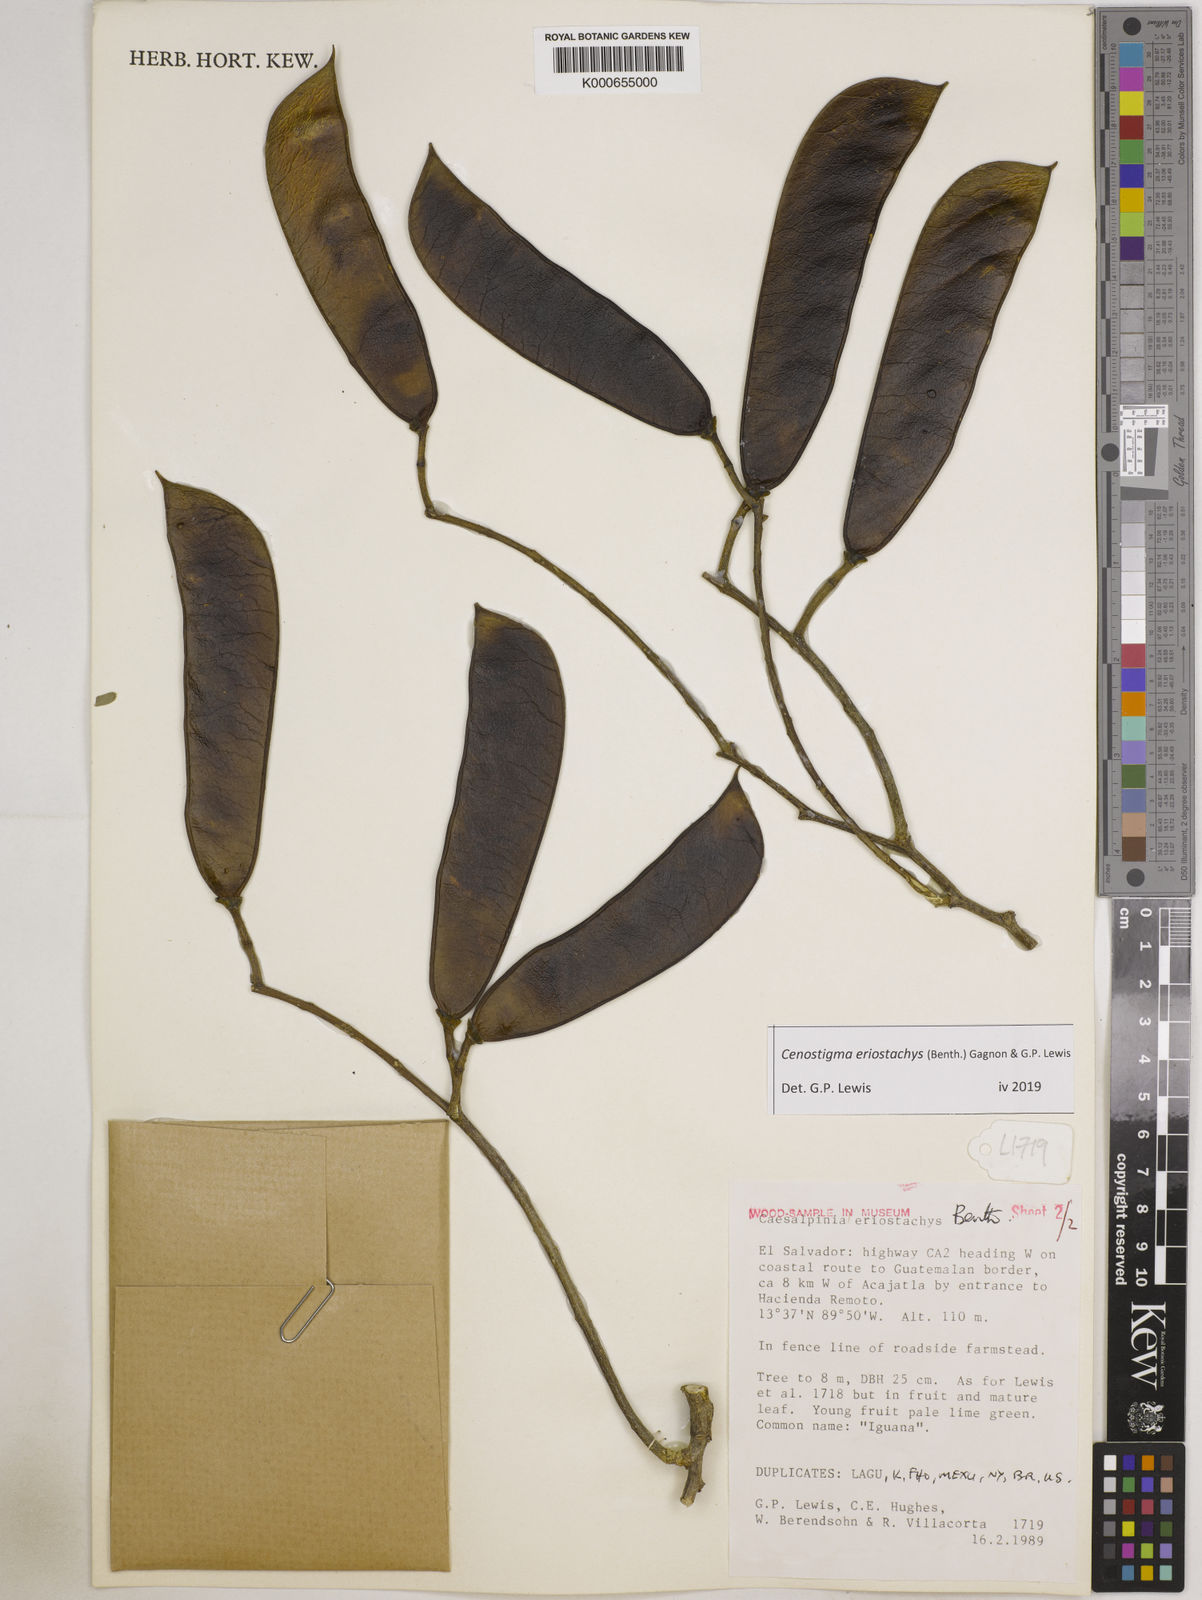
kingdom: Plantae
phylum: Tracheophyta
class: Magnoliopsida
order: Fabales
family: Fabaceae
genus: Cenostigma
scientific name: Cenostigma eriostachys
